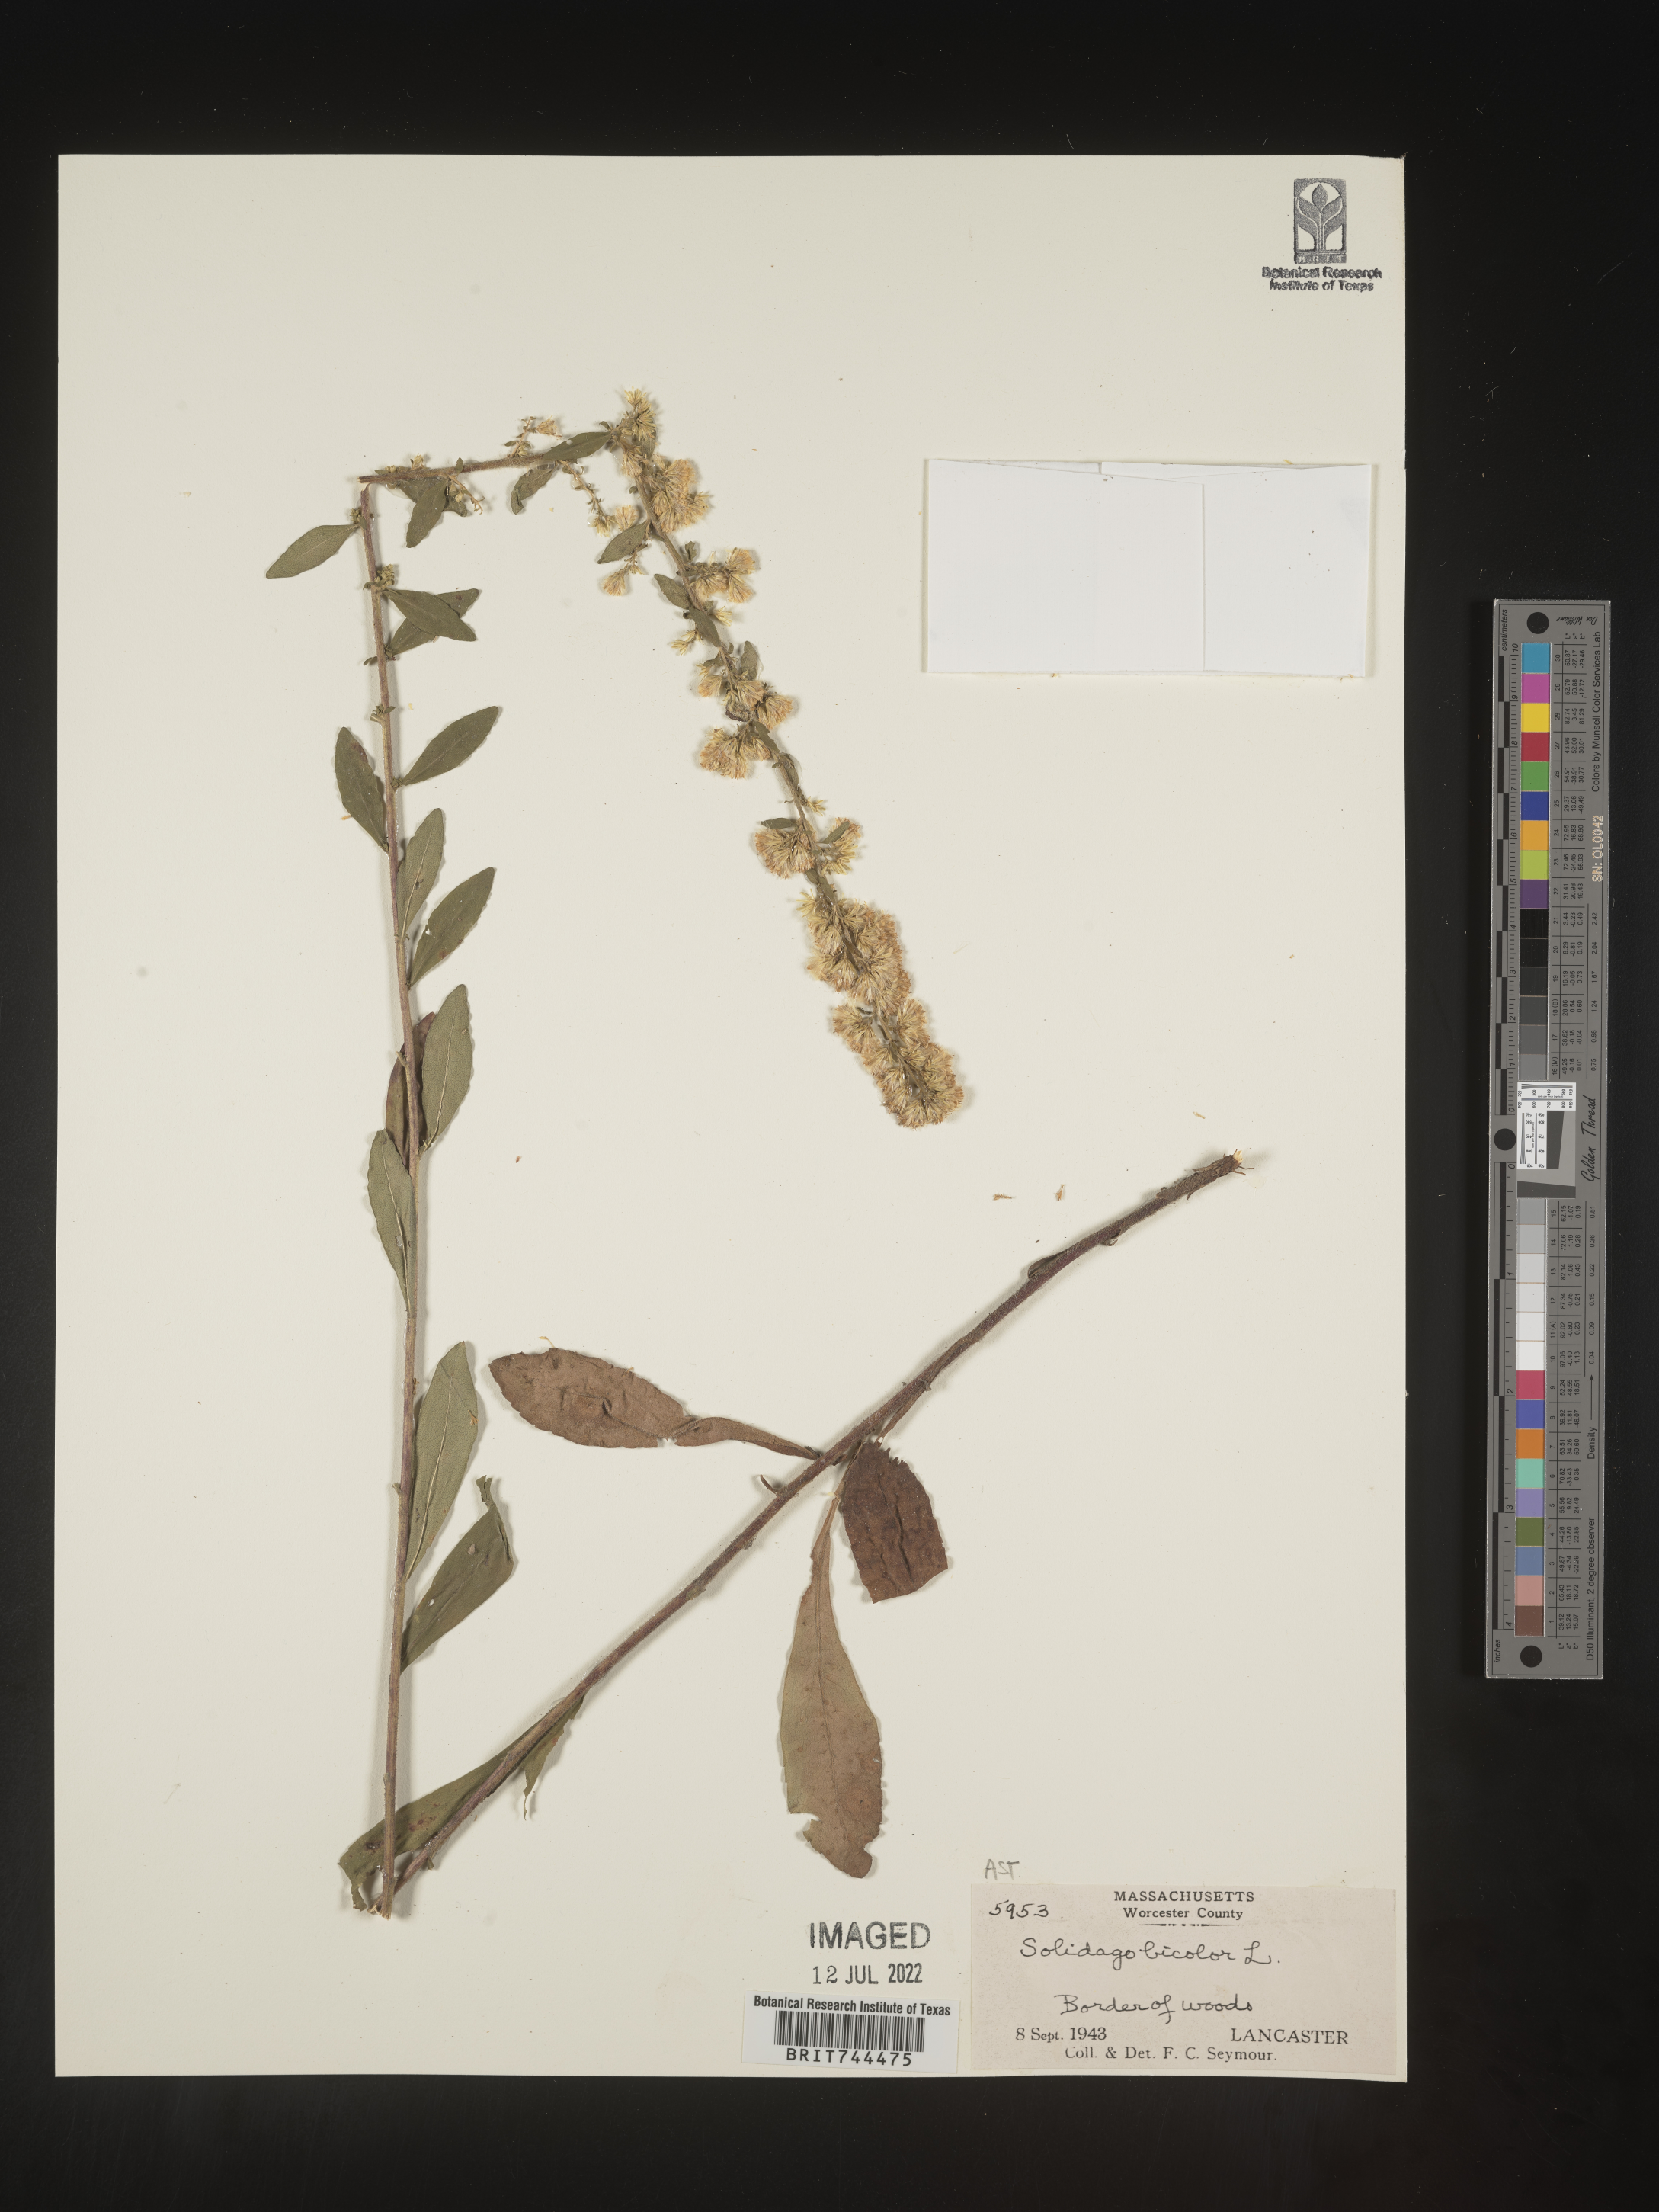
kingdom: Plantae
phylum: Tracheophyta
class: Magnoliopsida
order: Asterales
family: Asteraceae
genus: Solidago
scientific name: Solidago bicolor
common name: Silverrod
